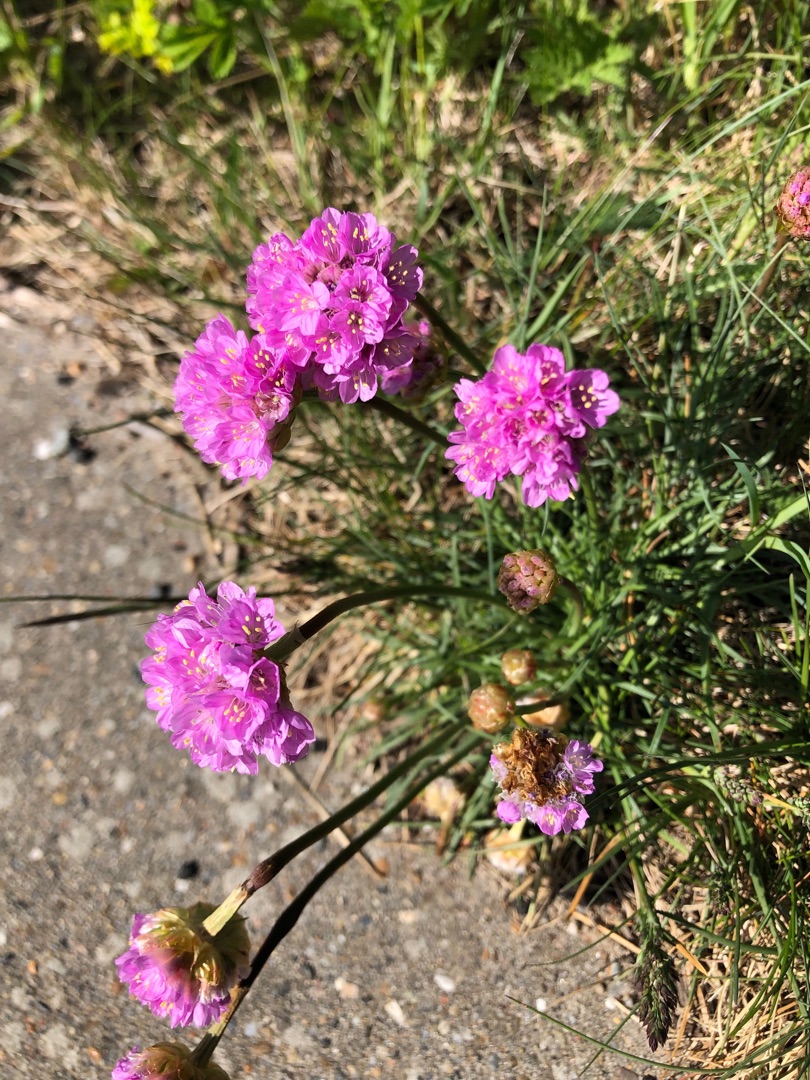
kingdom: Plantae
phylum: Tracheophyta
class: Magnoliopsida
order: Caryophyllales
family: Plumbaginaceae
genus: Armeria
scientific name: Armeria maritima
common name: Engelskgræs
